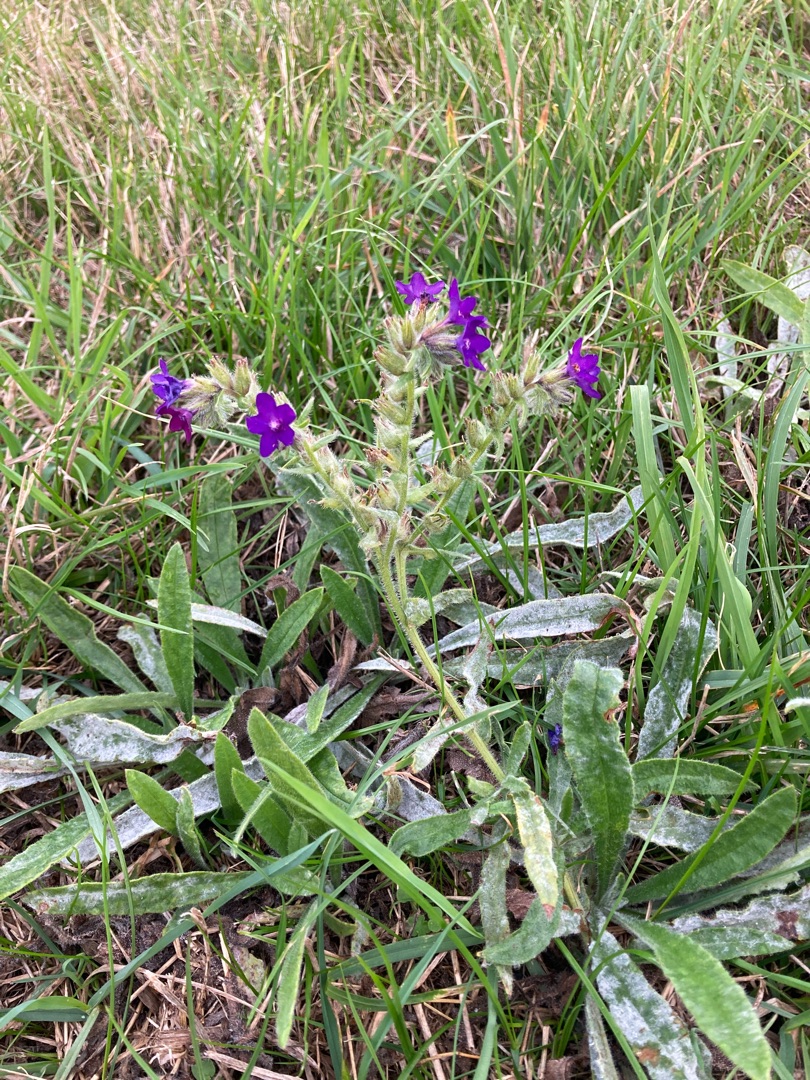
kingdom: Plantae
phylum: Tracheophyta
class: Magnoliopsida
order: Boraginales
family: Boraginaceae
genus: Anchusa
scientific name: Anchusa officinalis
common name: Læge-oksetunge
